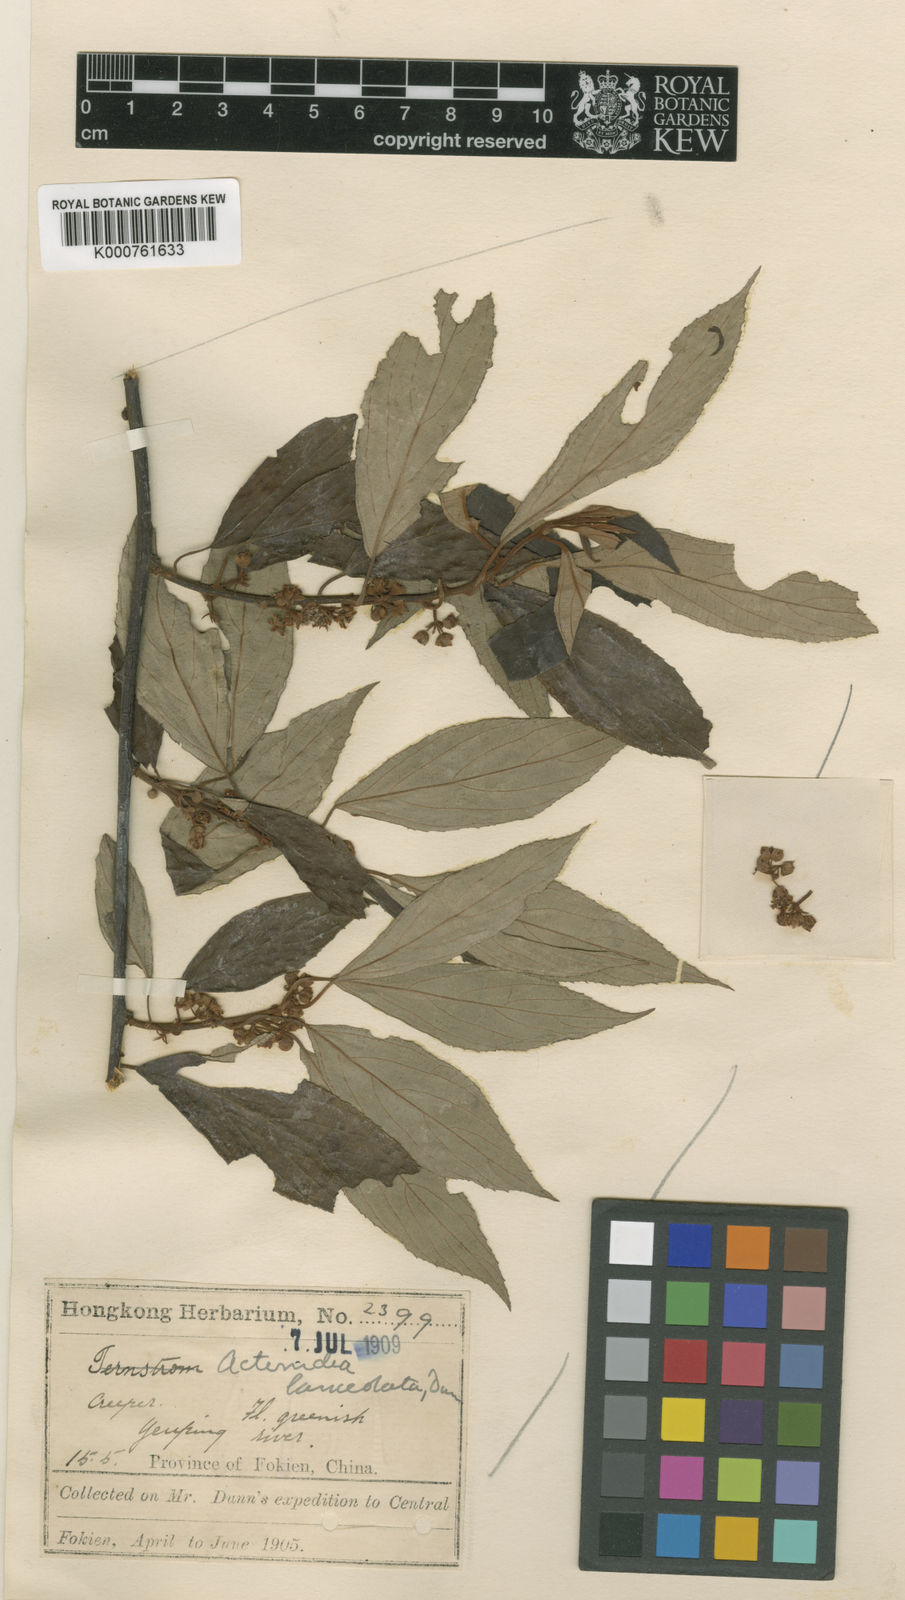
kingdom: Plantae
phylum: Tracheophyta
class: Magnoliopsida
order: Ericales
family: Actinidiaceae
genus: Actinidia
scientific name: Actinidia lanceolata
